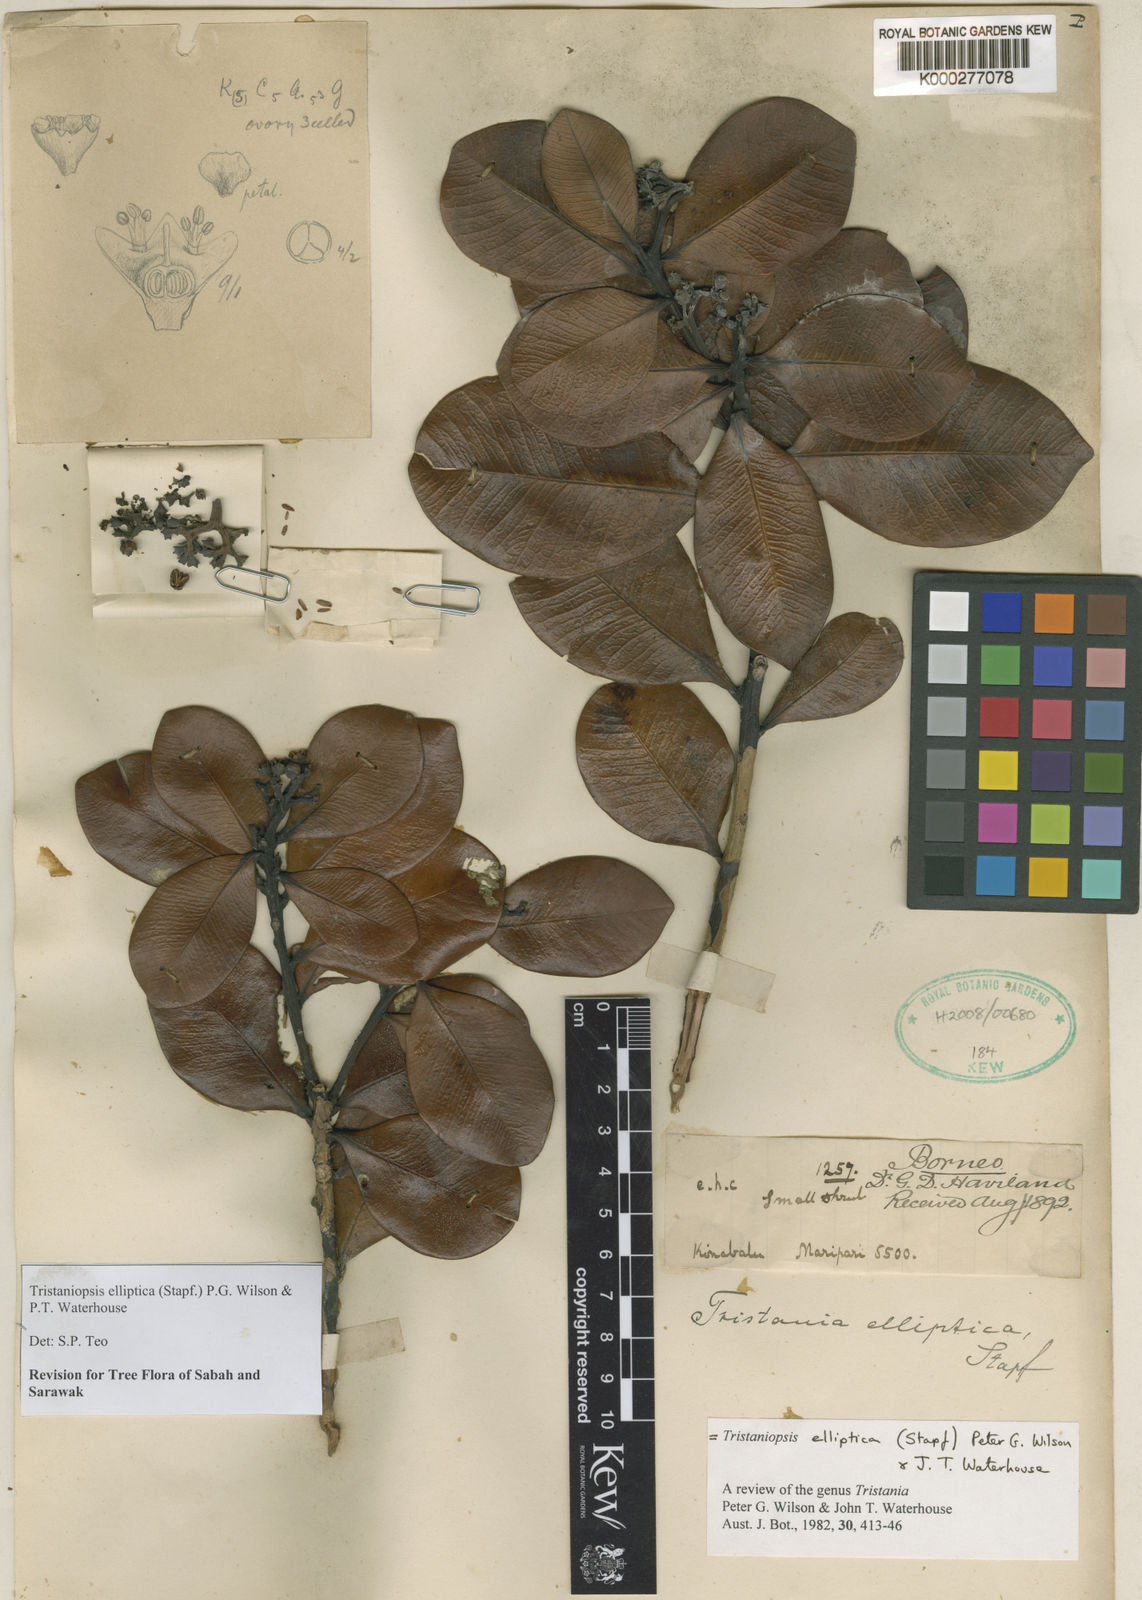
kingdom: Plantae
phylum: Tracheophyta
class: Magnoliopsida
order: Myrtales
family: Myrtaceae
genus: Tristaniopsis
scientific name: Tristaniopsis elliptica
